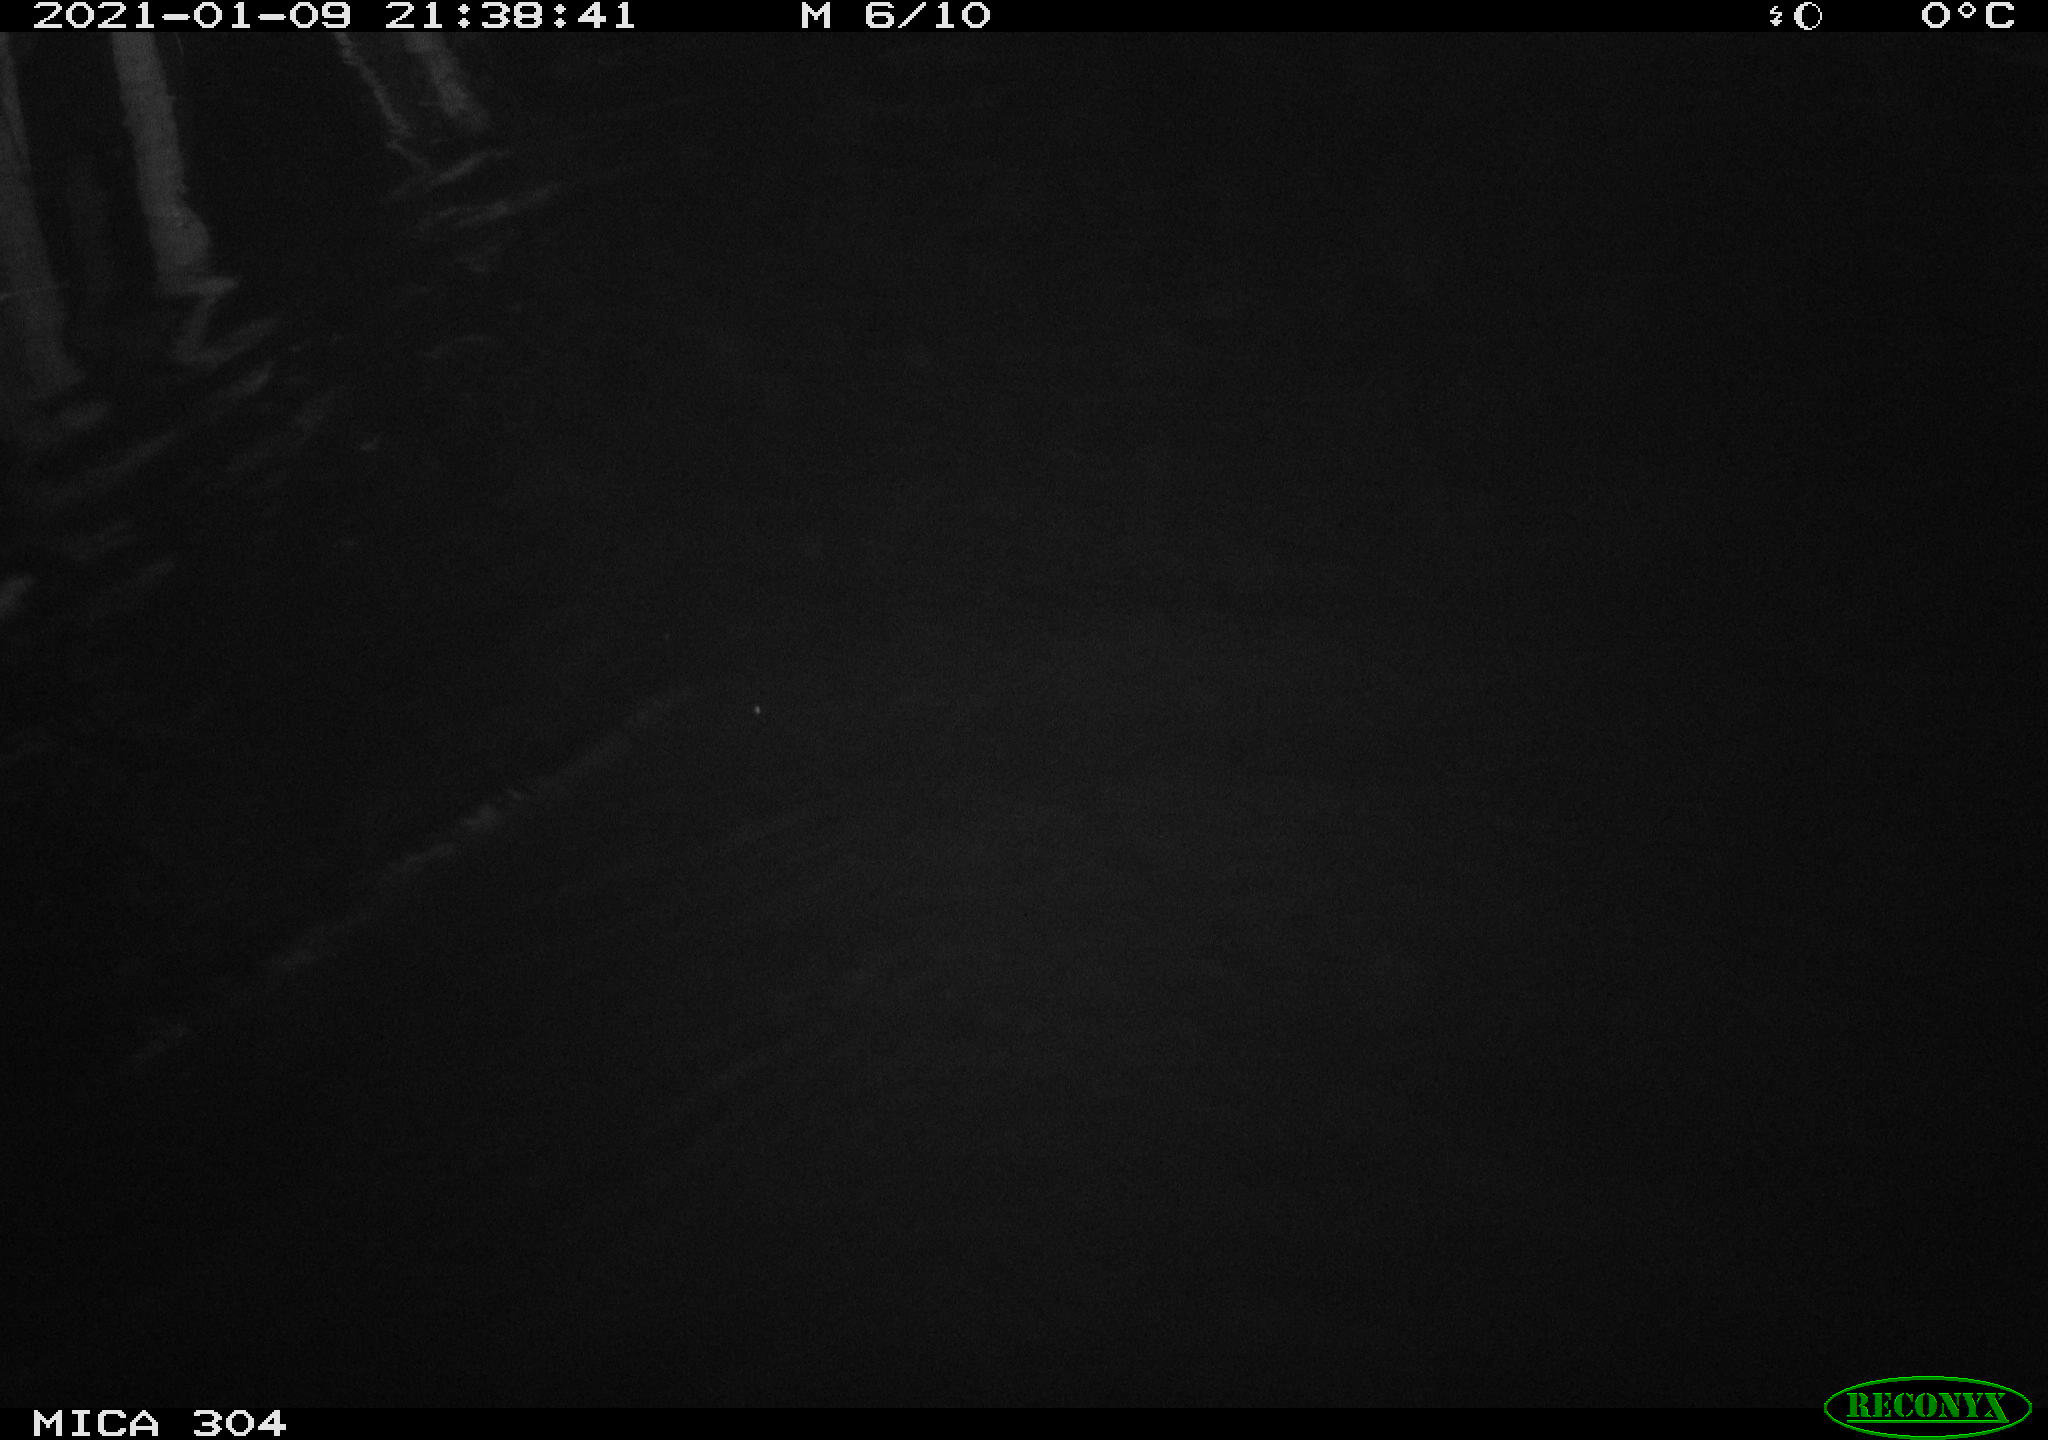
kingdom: Animalia
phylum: Chordata
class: Mammalia
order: Rodentia
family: Muridae
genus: Rattus
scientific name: Rattus norvegicus
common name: Brown rat
